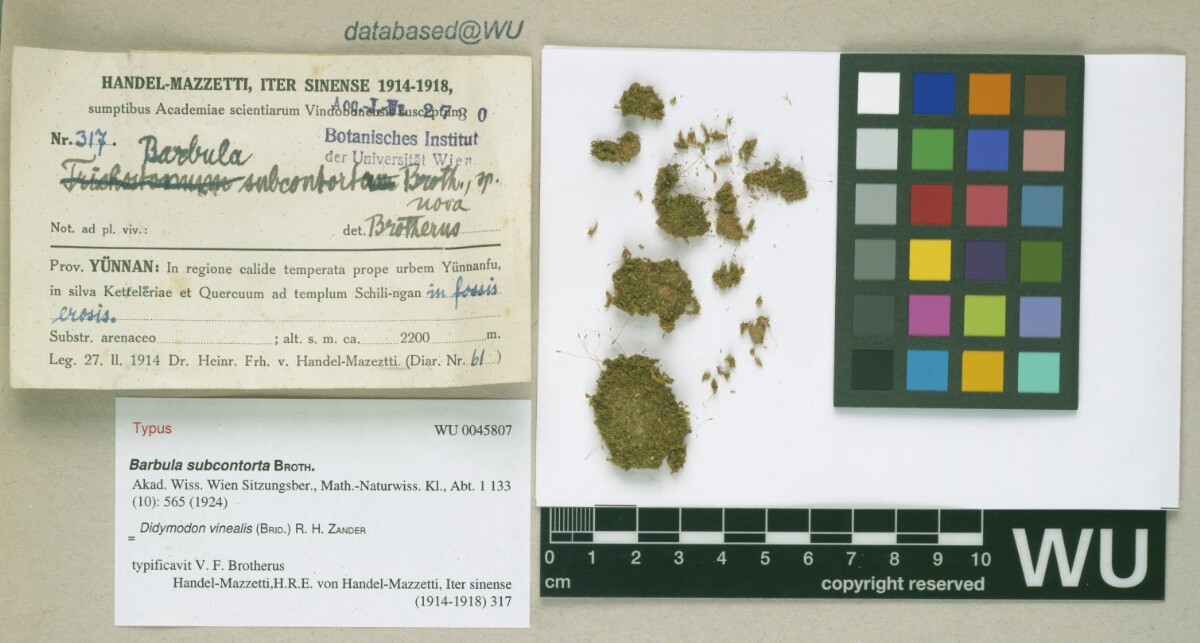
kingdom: Plantae
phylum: Bryophyta
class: Bryopsida
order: Pottiales
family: Pottiaceae
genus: Vinealobryum
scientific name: Vinealobryum vineale
